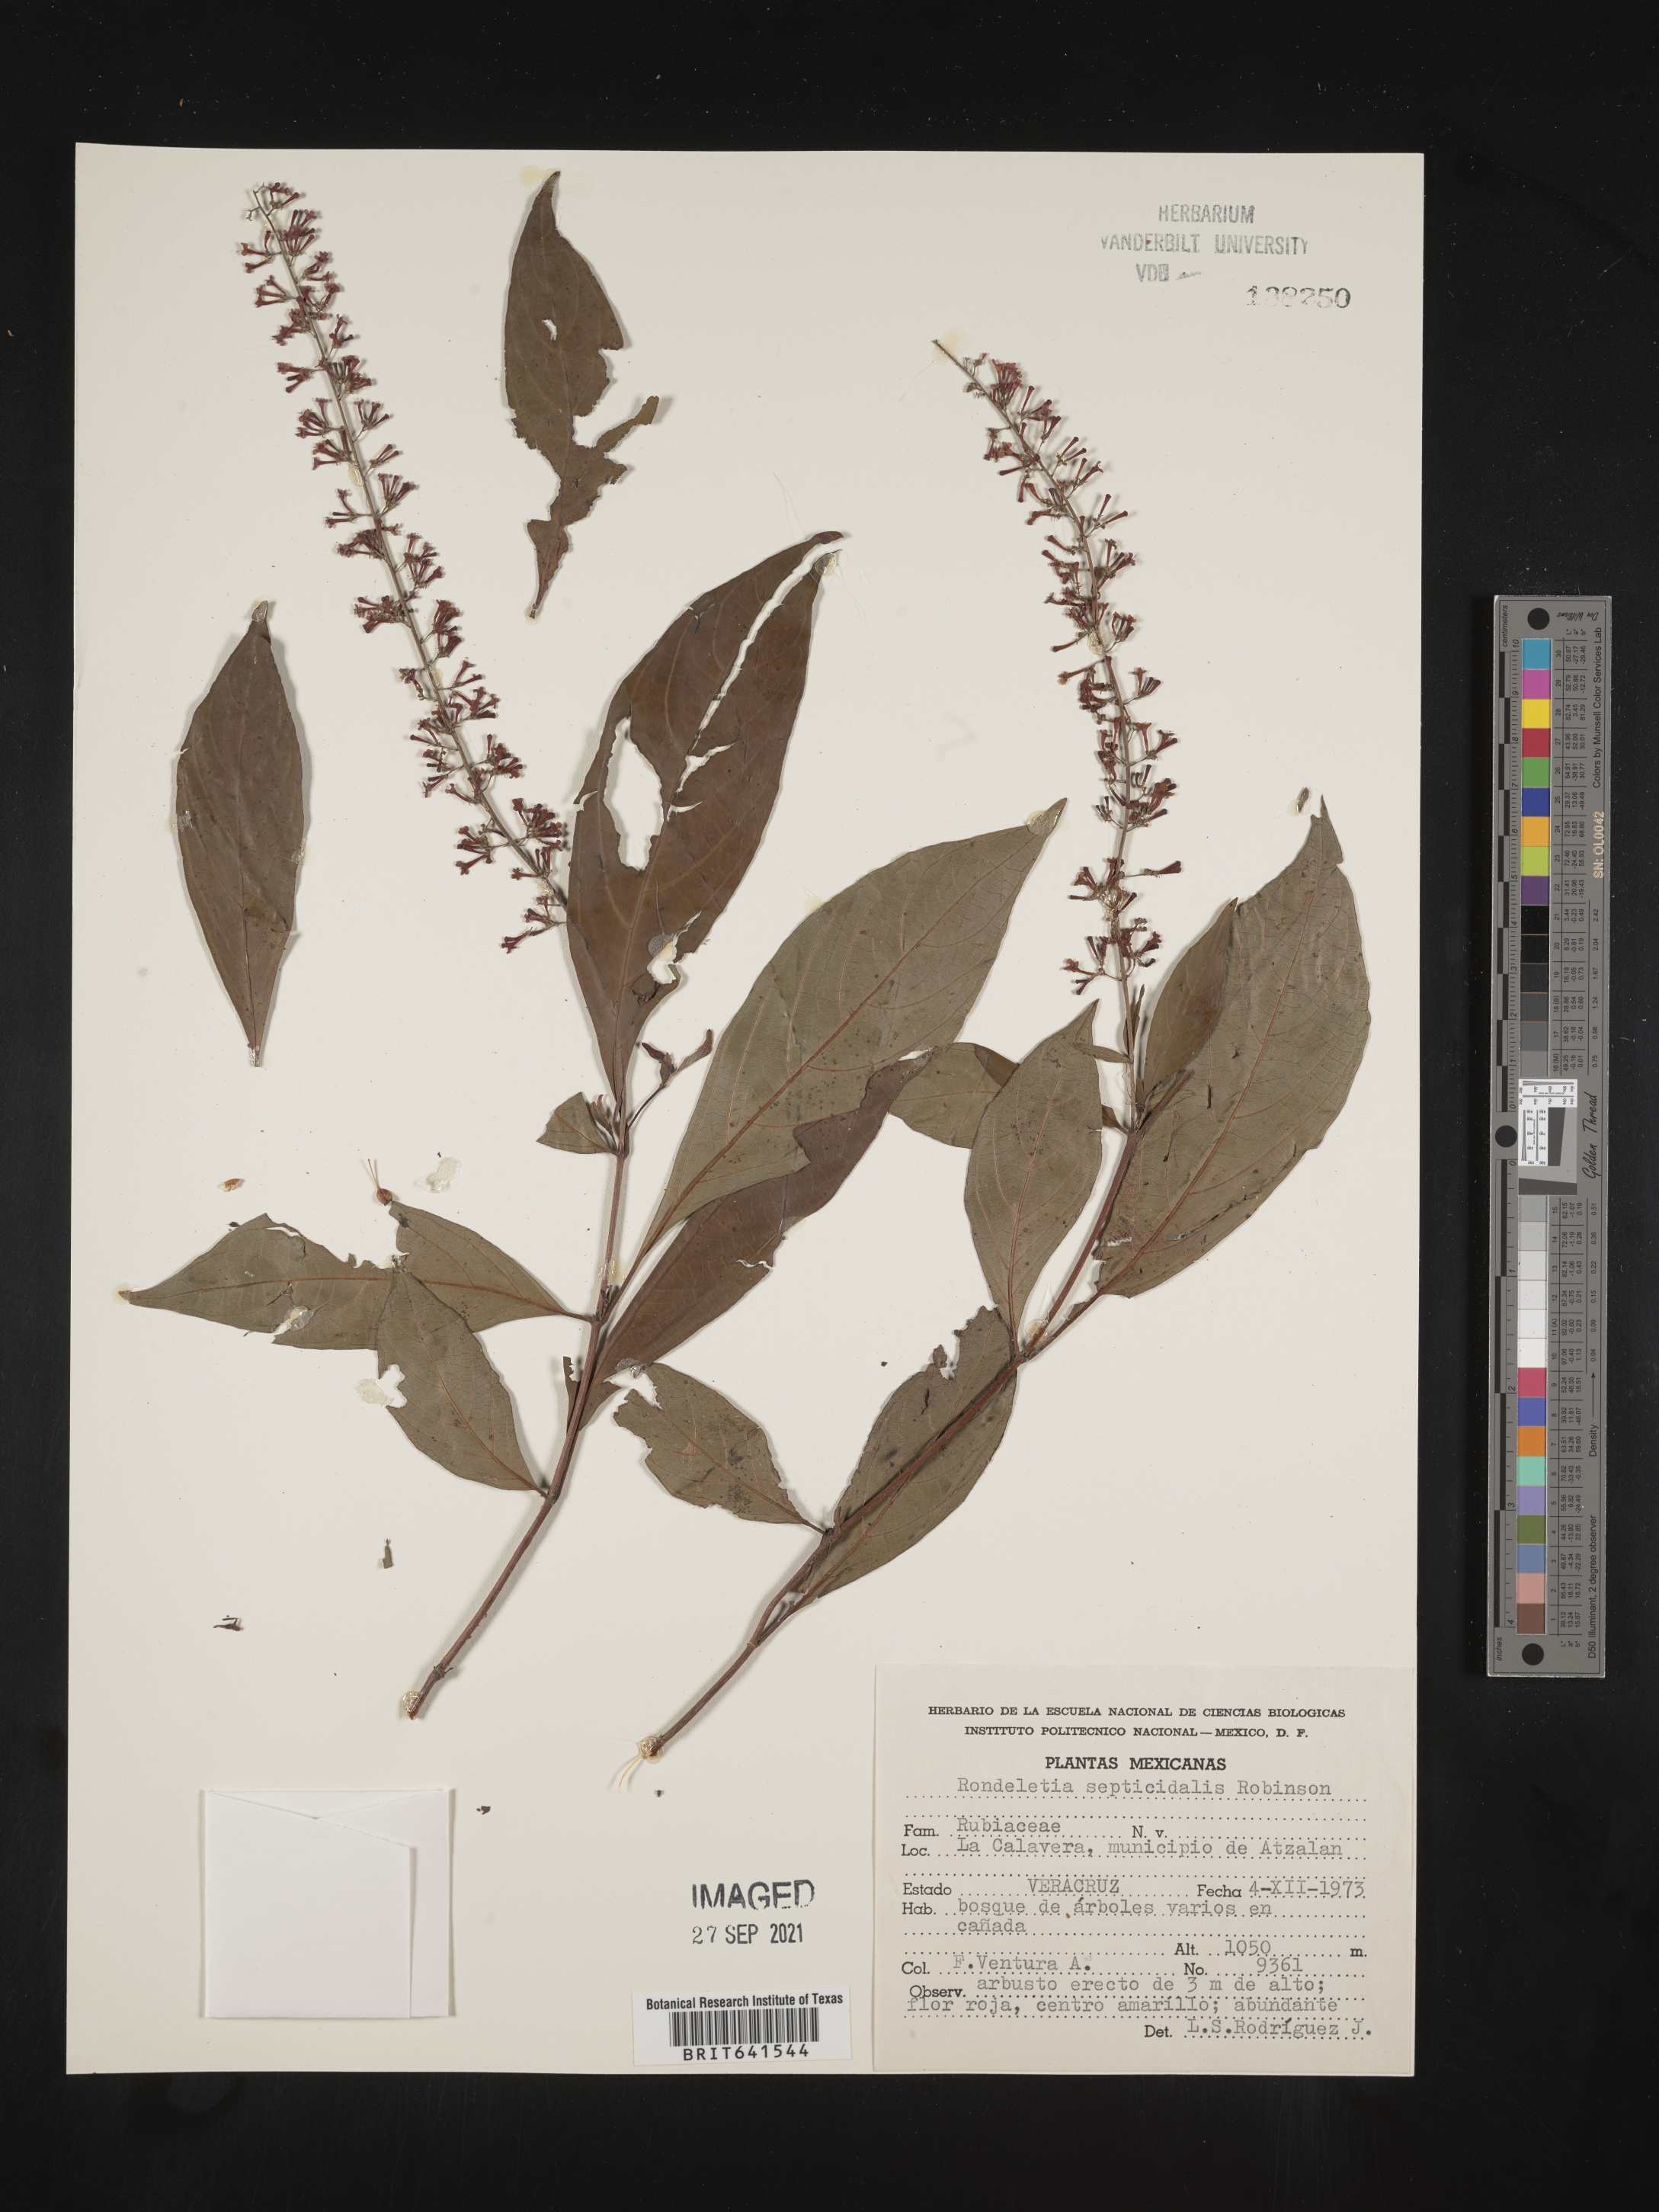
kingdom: Plantae
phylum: Tracheophyta
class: Magnoliopsida
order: Gentianales
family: Rubiaceae
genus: Rondeletia
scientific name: Rondeletia
